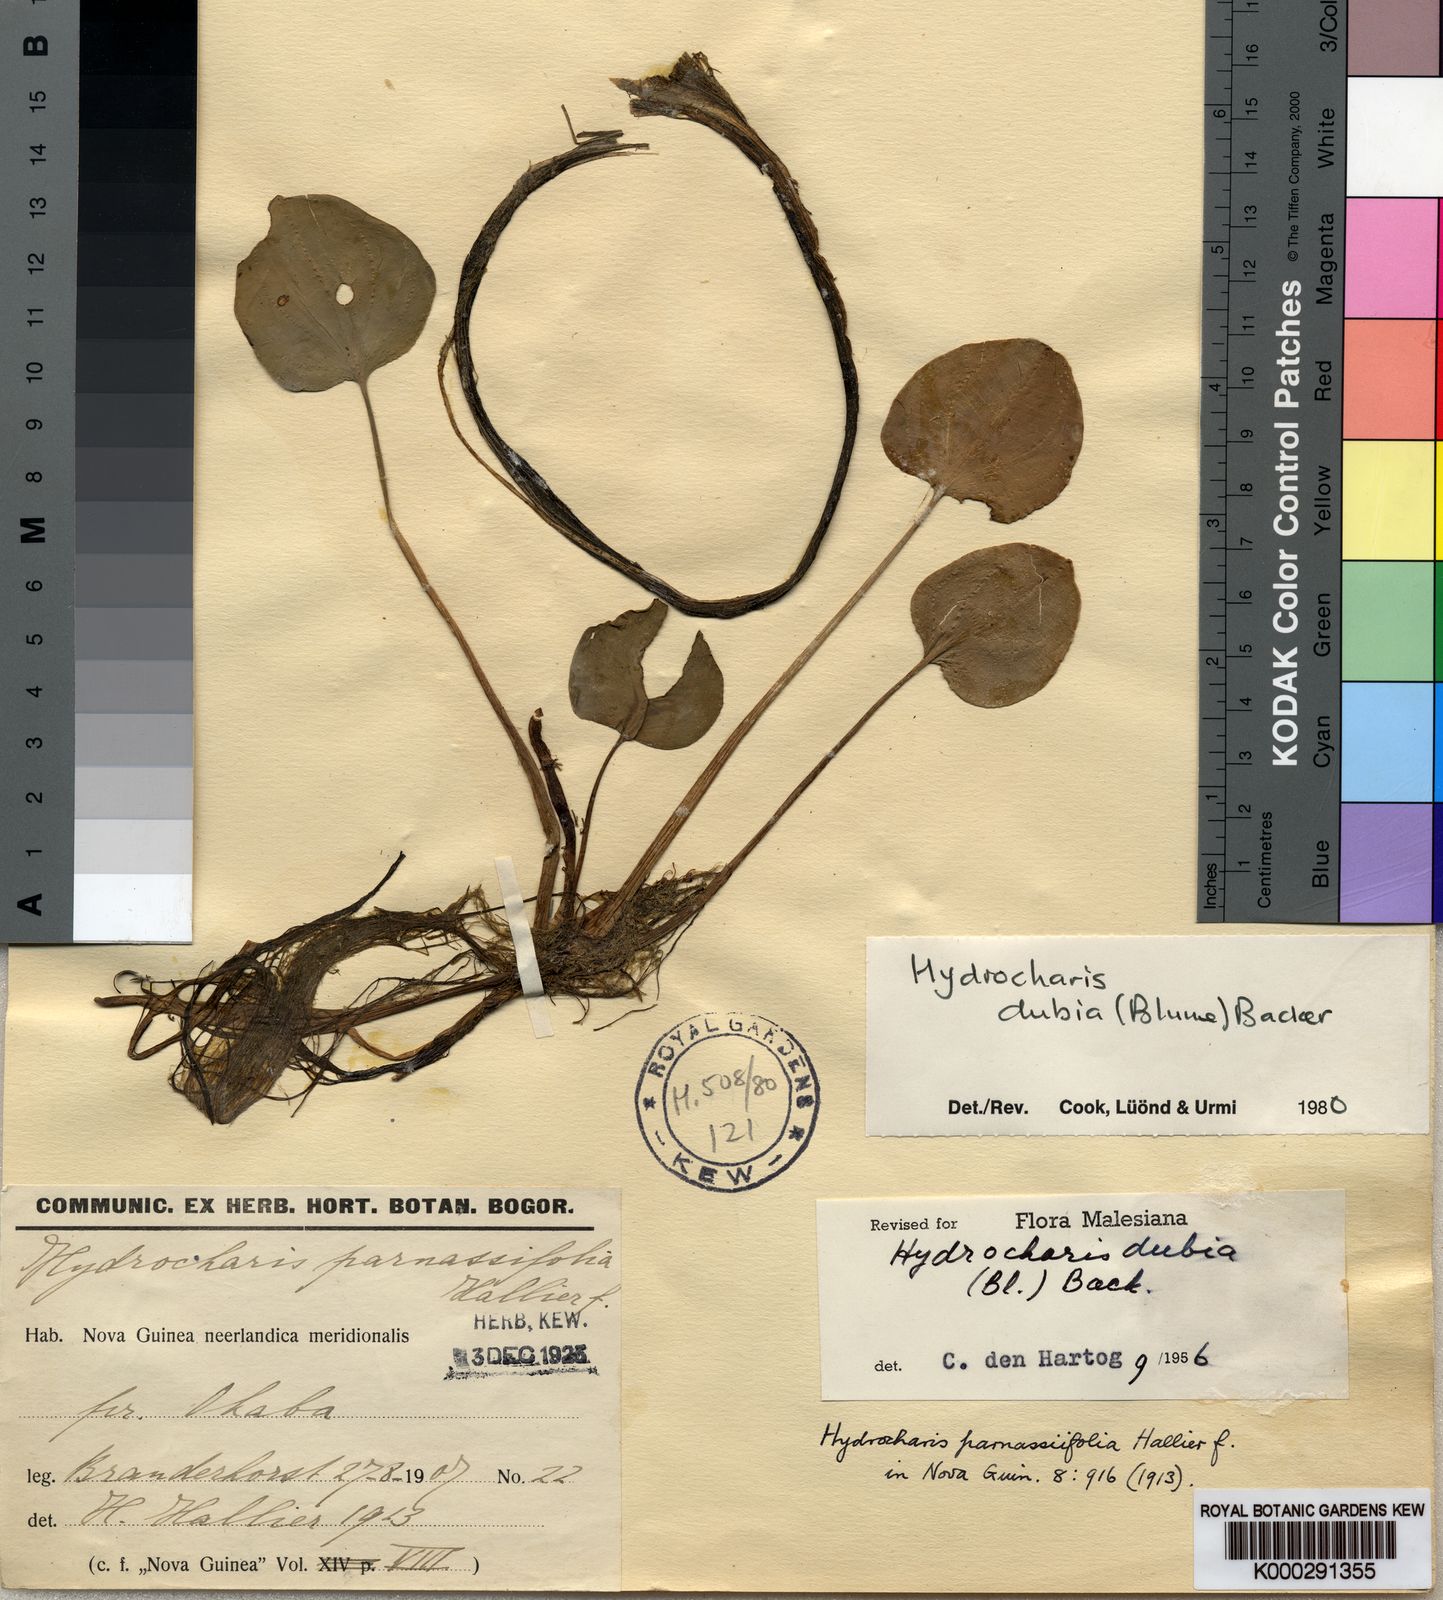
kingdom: Plantae
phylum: Tracheophyta
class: Liliopsida
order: Alismatales
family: Hydrocharitaceae
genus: Hydrocharis
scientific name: Hydrocharis dubia
